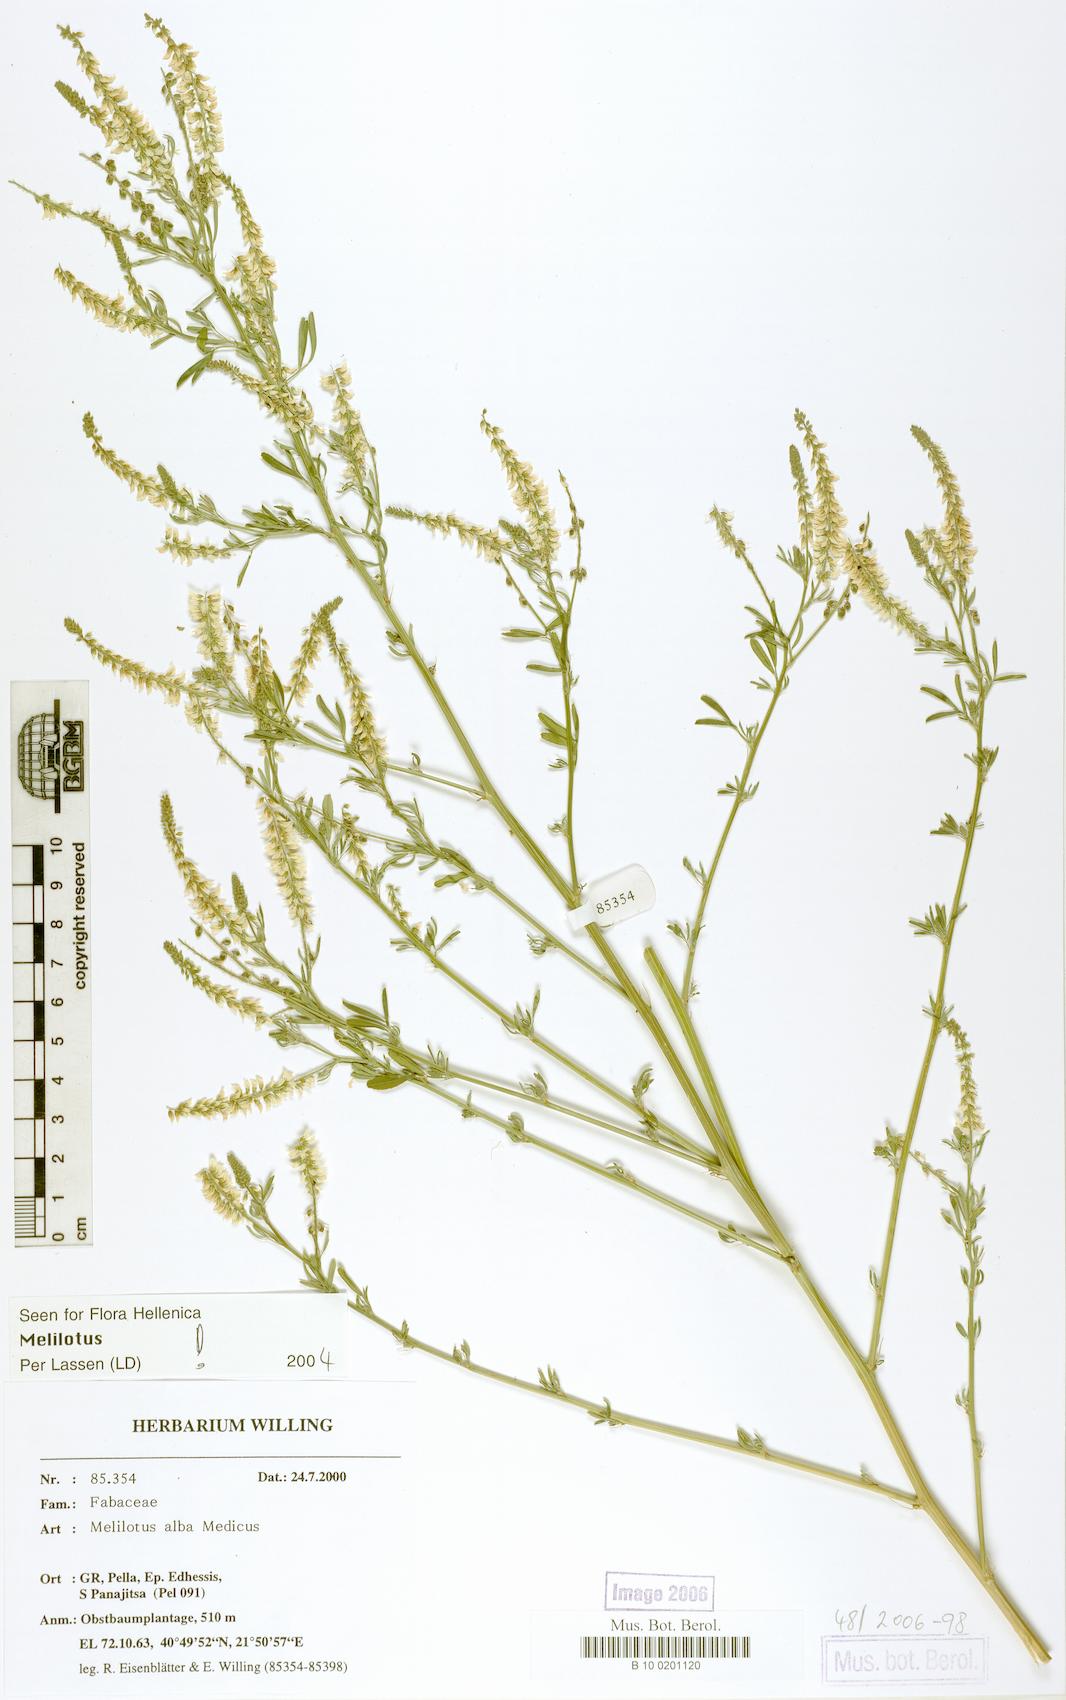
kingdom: Plantae
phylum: Tracheophyta
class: Magnoliopsida
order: Fabales
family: Fabaceae
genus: Melilotus
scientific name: Melilotus albus
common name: White melilot
